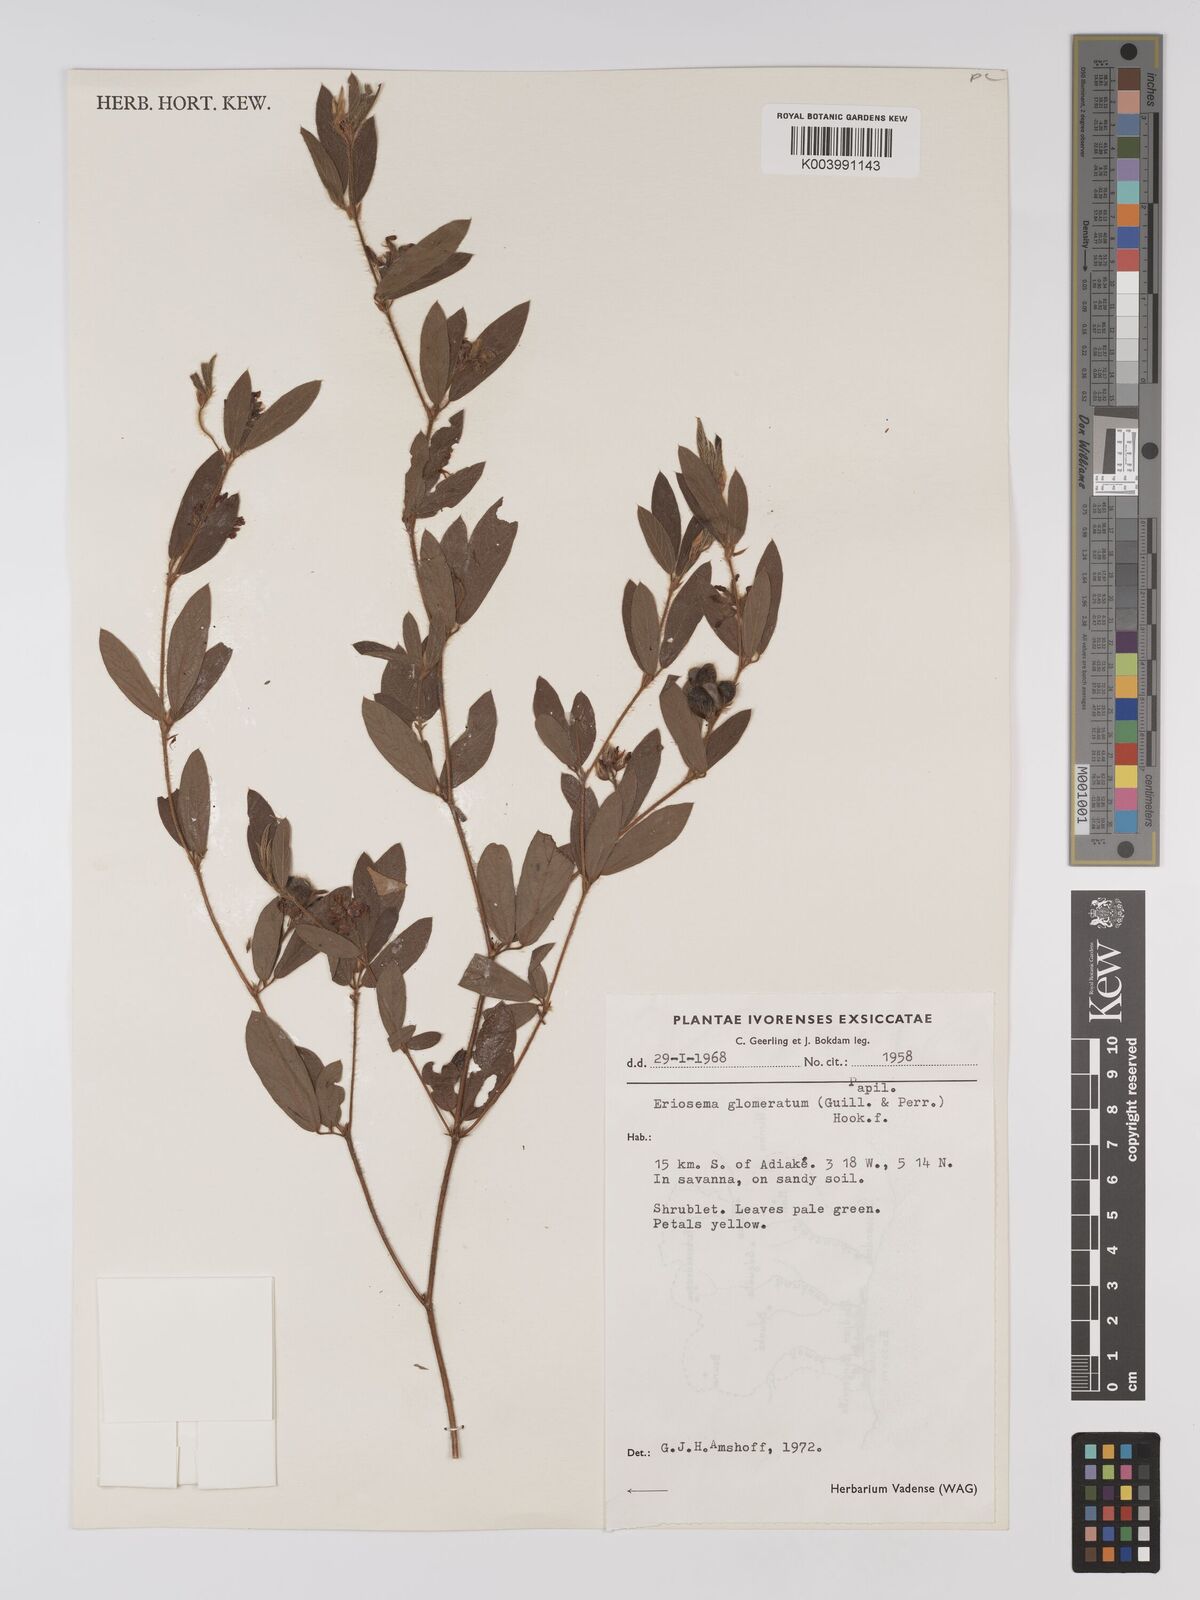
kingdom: Plantae
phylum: Tracheophyta
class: Magnoliopsida
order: Fabales
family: Fabaceae
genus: Eriosema
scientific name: Eriosema glomeratum
